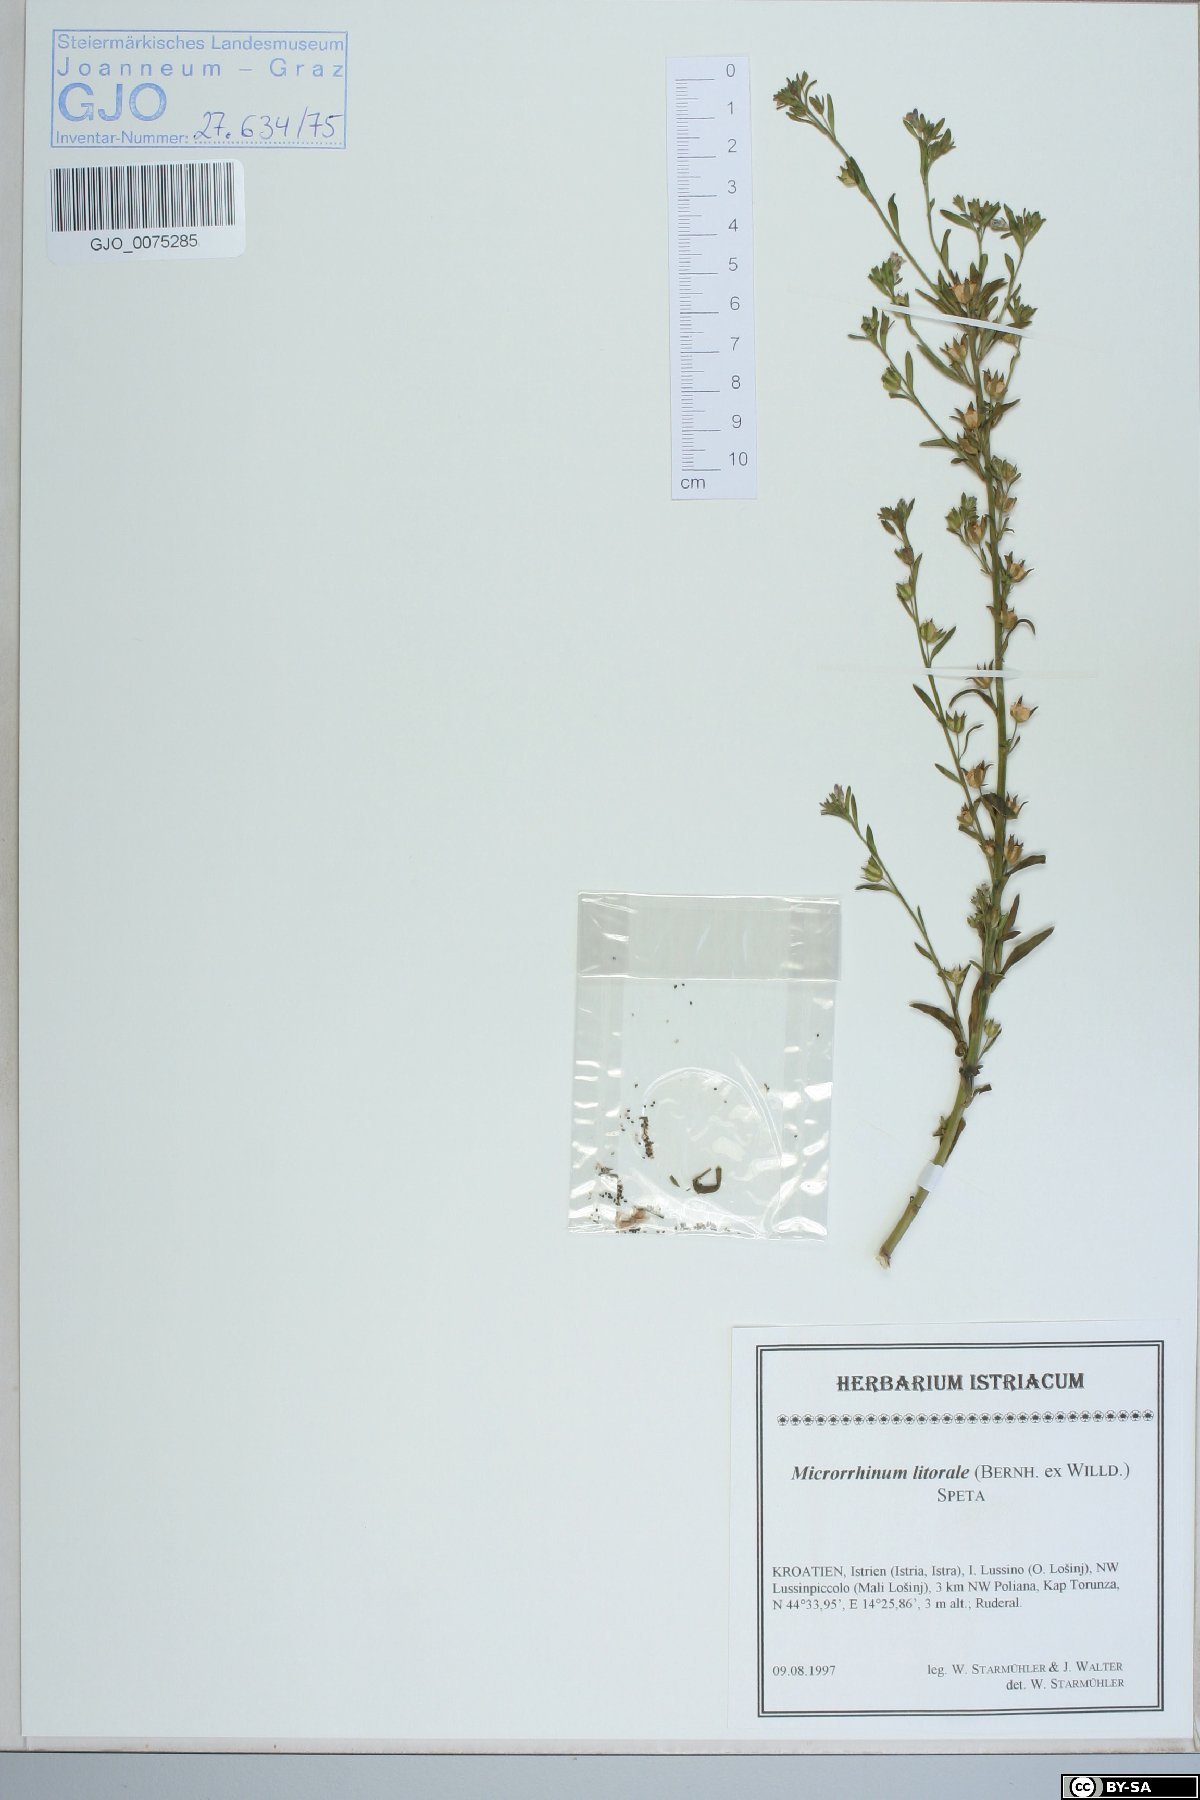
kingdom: Plantae
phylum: Tracheophyta
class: Magnoliopsida
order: Lamiales
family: Plantaginaceae
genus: Chaenorhinum
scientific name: Chaenorhinum litorale
